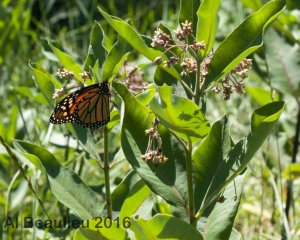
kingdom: Animalia
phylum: Arthropoda
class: Insecta
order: Lepidoptera
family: Nymphalidae
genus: Danaus
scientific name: Danaus plexippus
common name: Monarch
